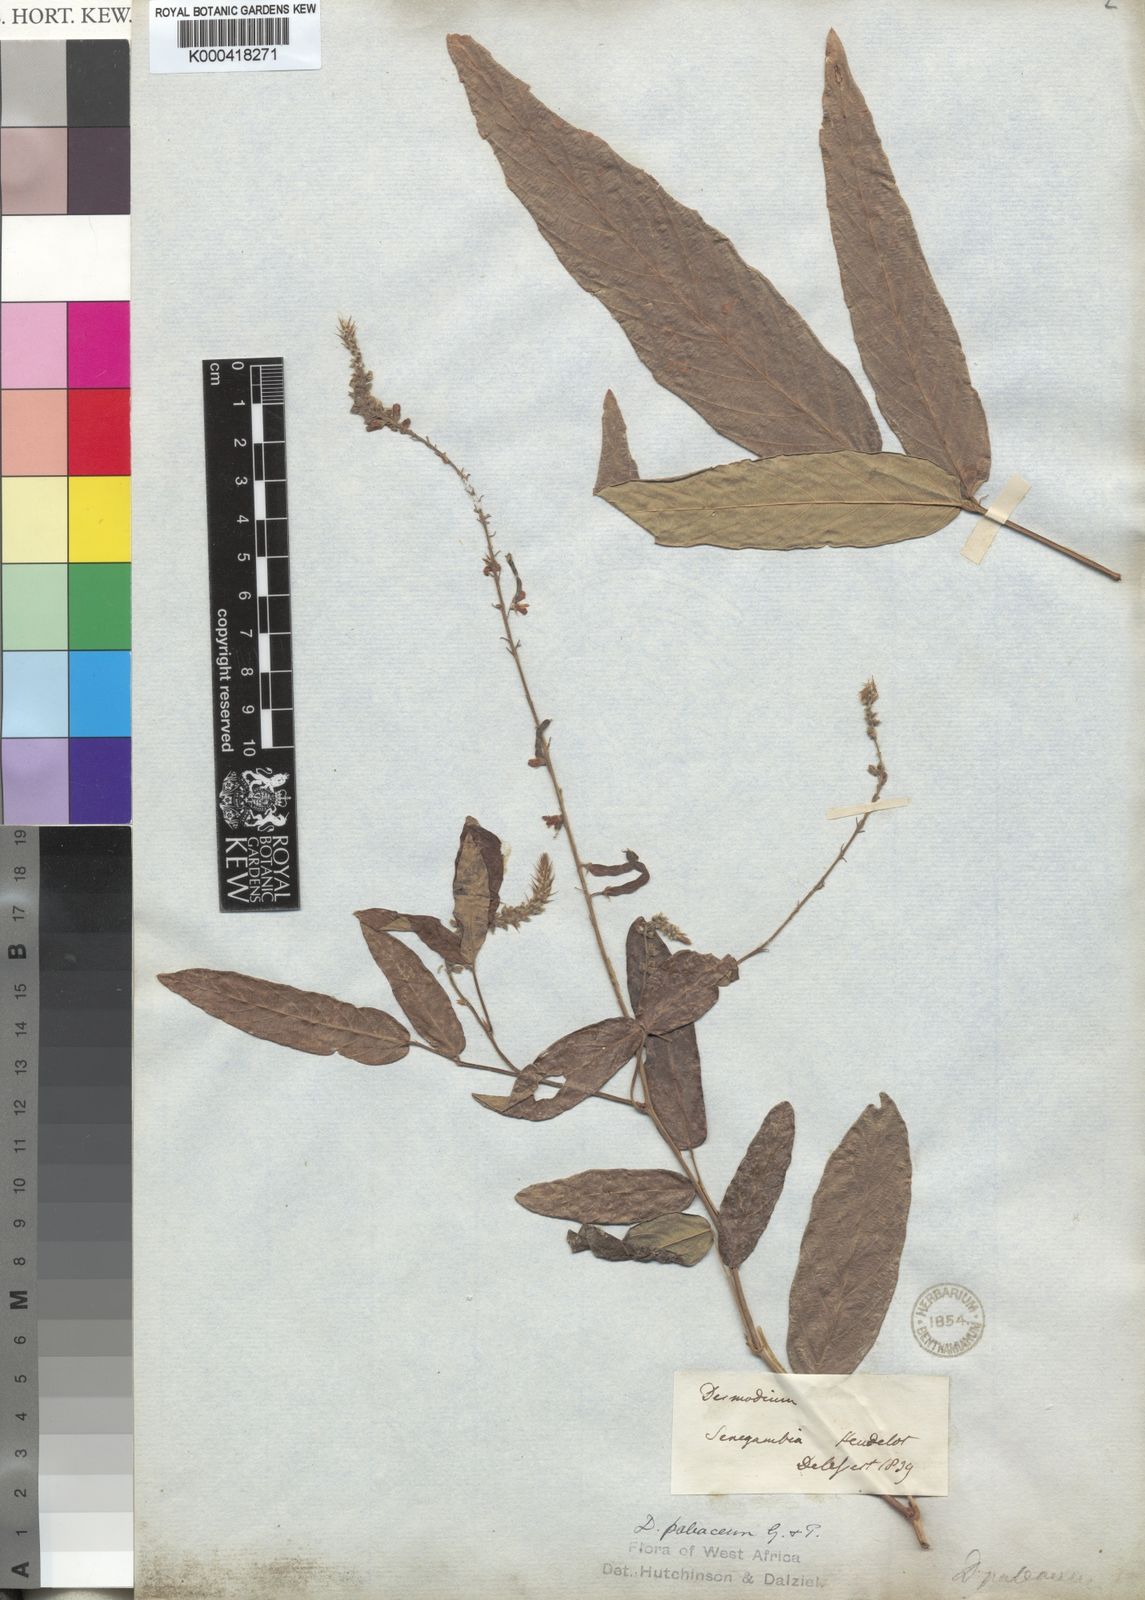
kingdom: Plantae
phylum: Tracheophyta
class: Magnoliopsida
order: Fabales
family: Fabaceae
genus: Pleurolobus
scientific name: Pleurolobus salicifolius
